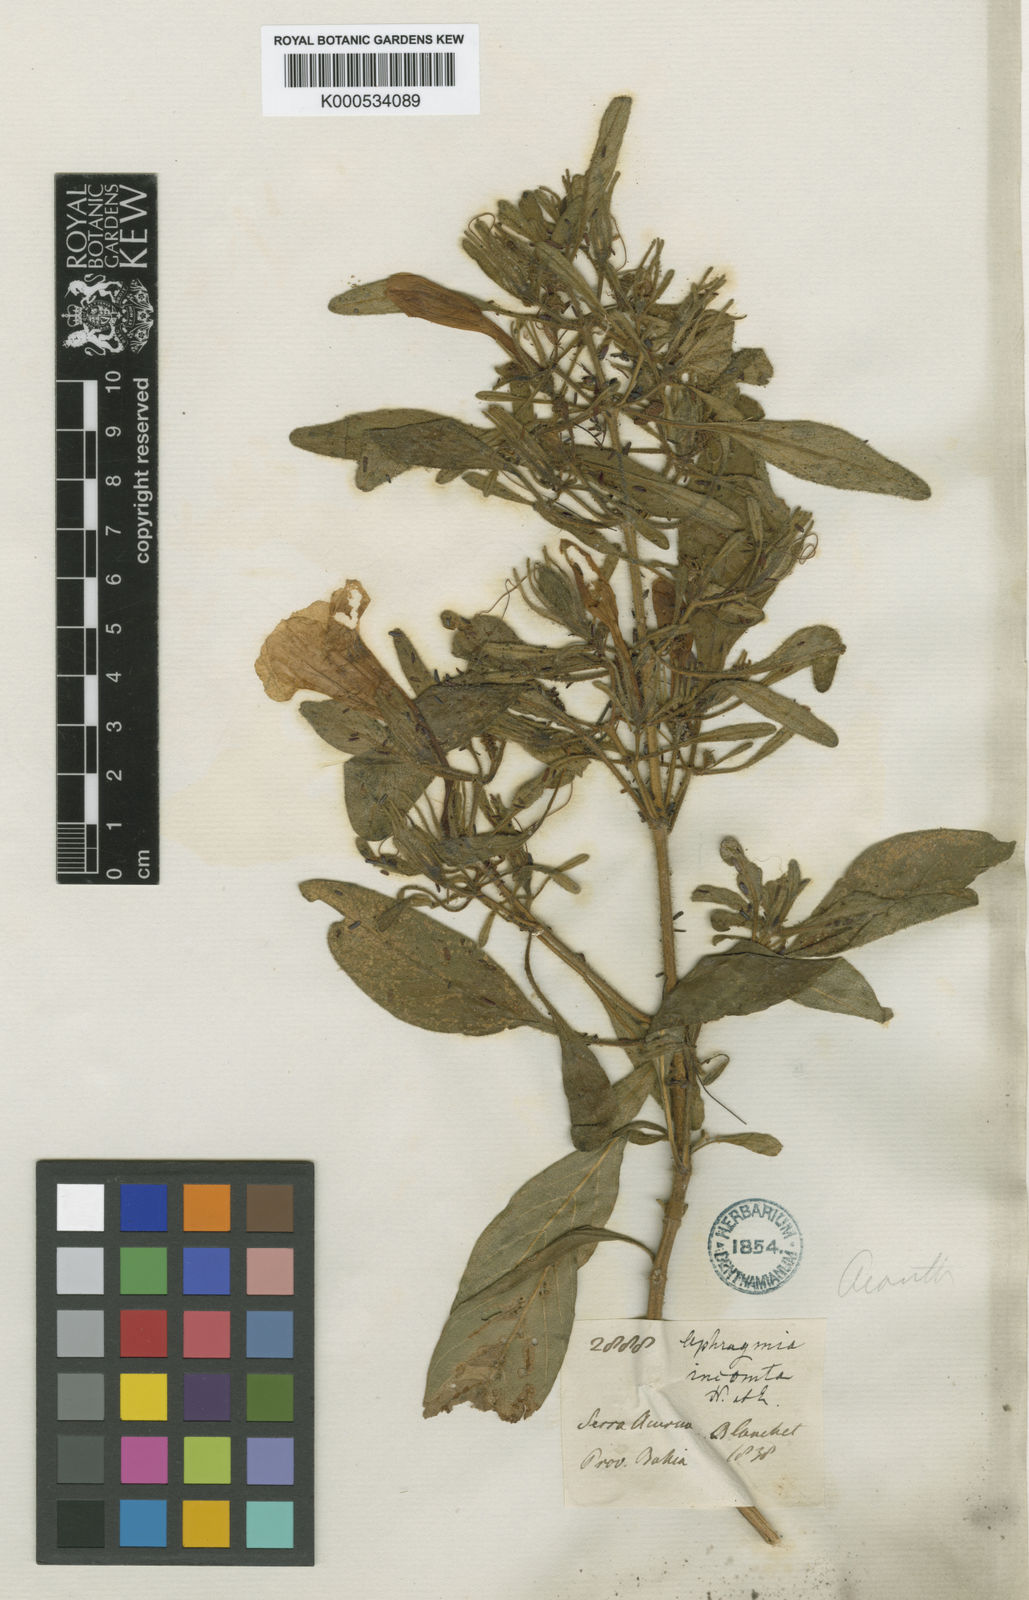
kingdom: Plantae
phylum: Tracheophyta
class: Magnoliopsida
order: Lamiales
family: Acanthaceae
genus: Ruellia
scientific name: Ruellia incomta
